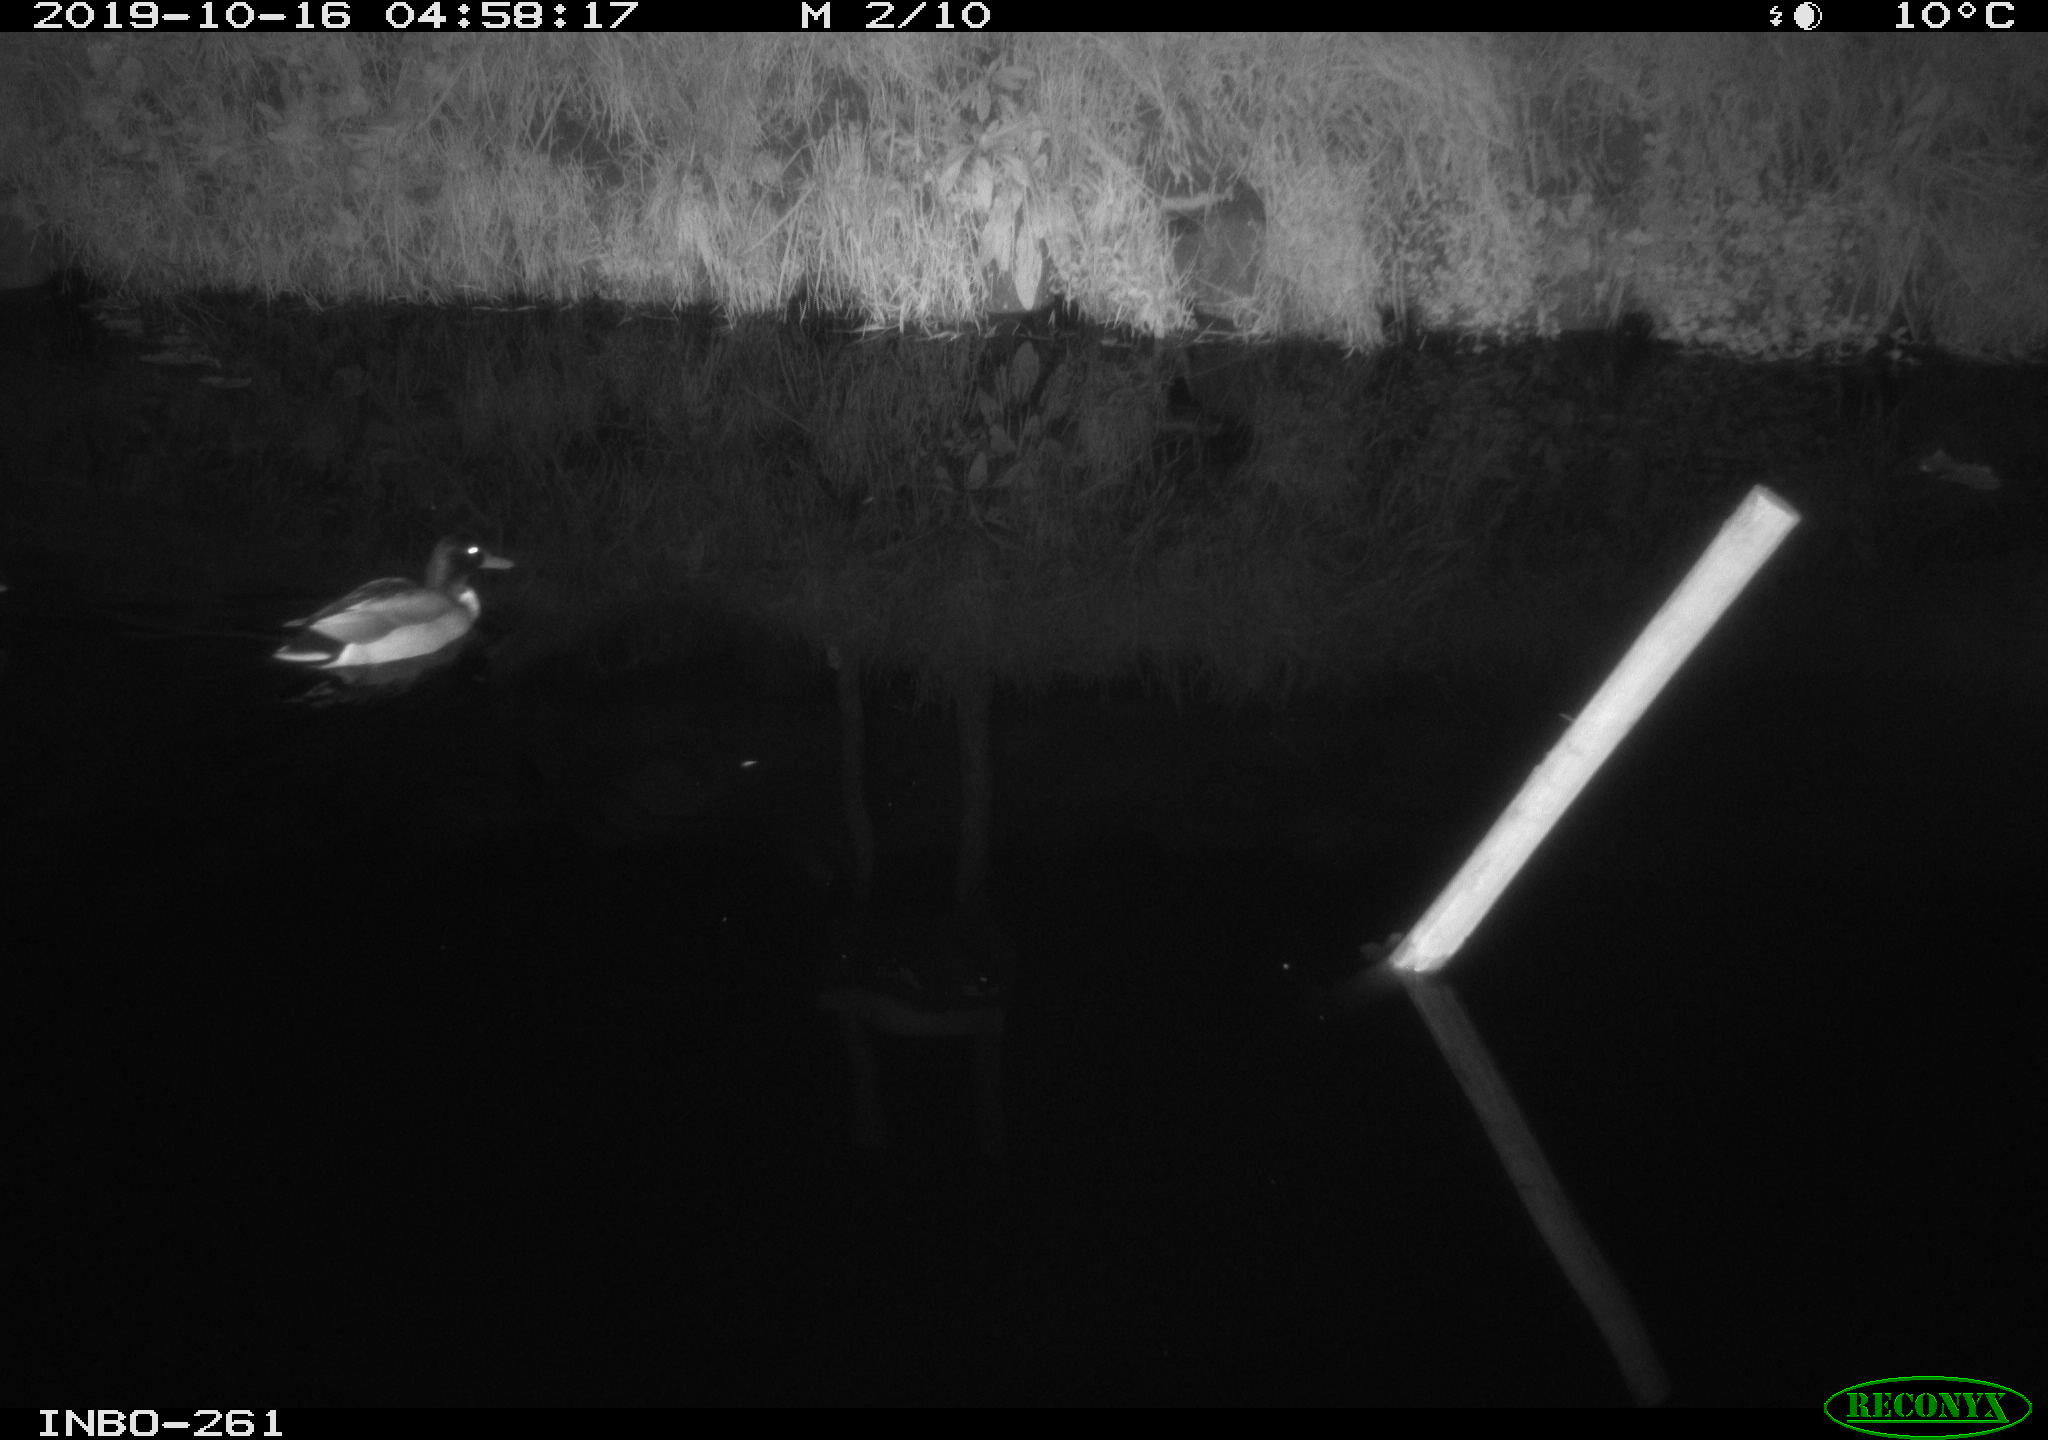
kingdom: Animalia
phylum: Chordata
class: Aves
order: Anseriformes
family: Anatidae
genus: Anas
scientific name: Anas platyrhynchos
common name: Mallard
